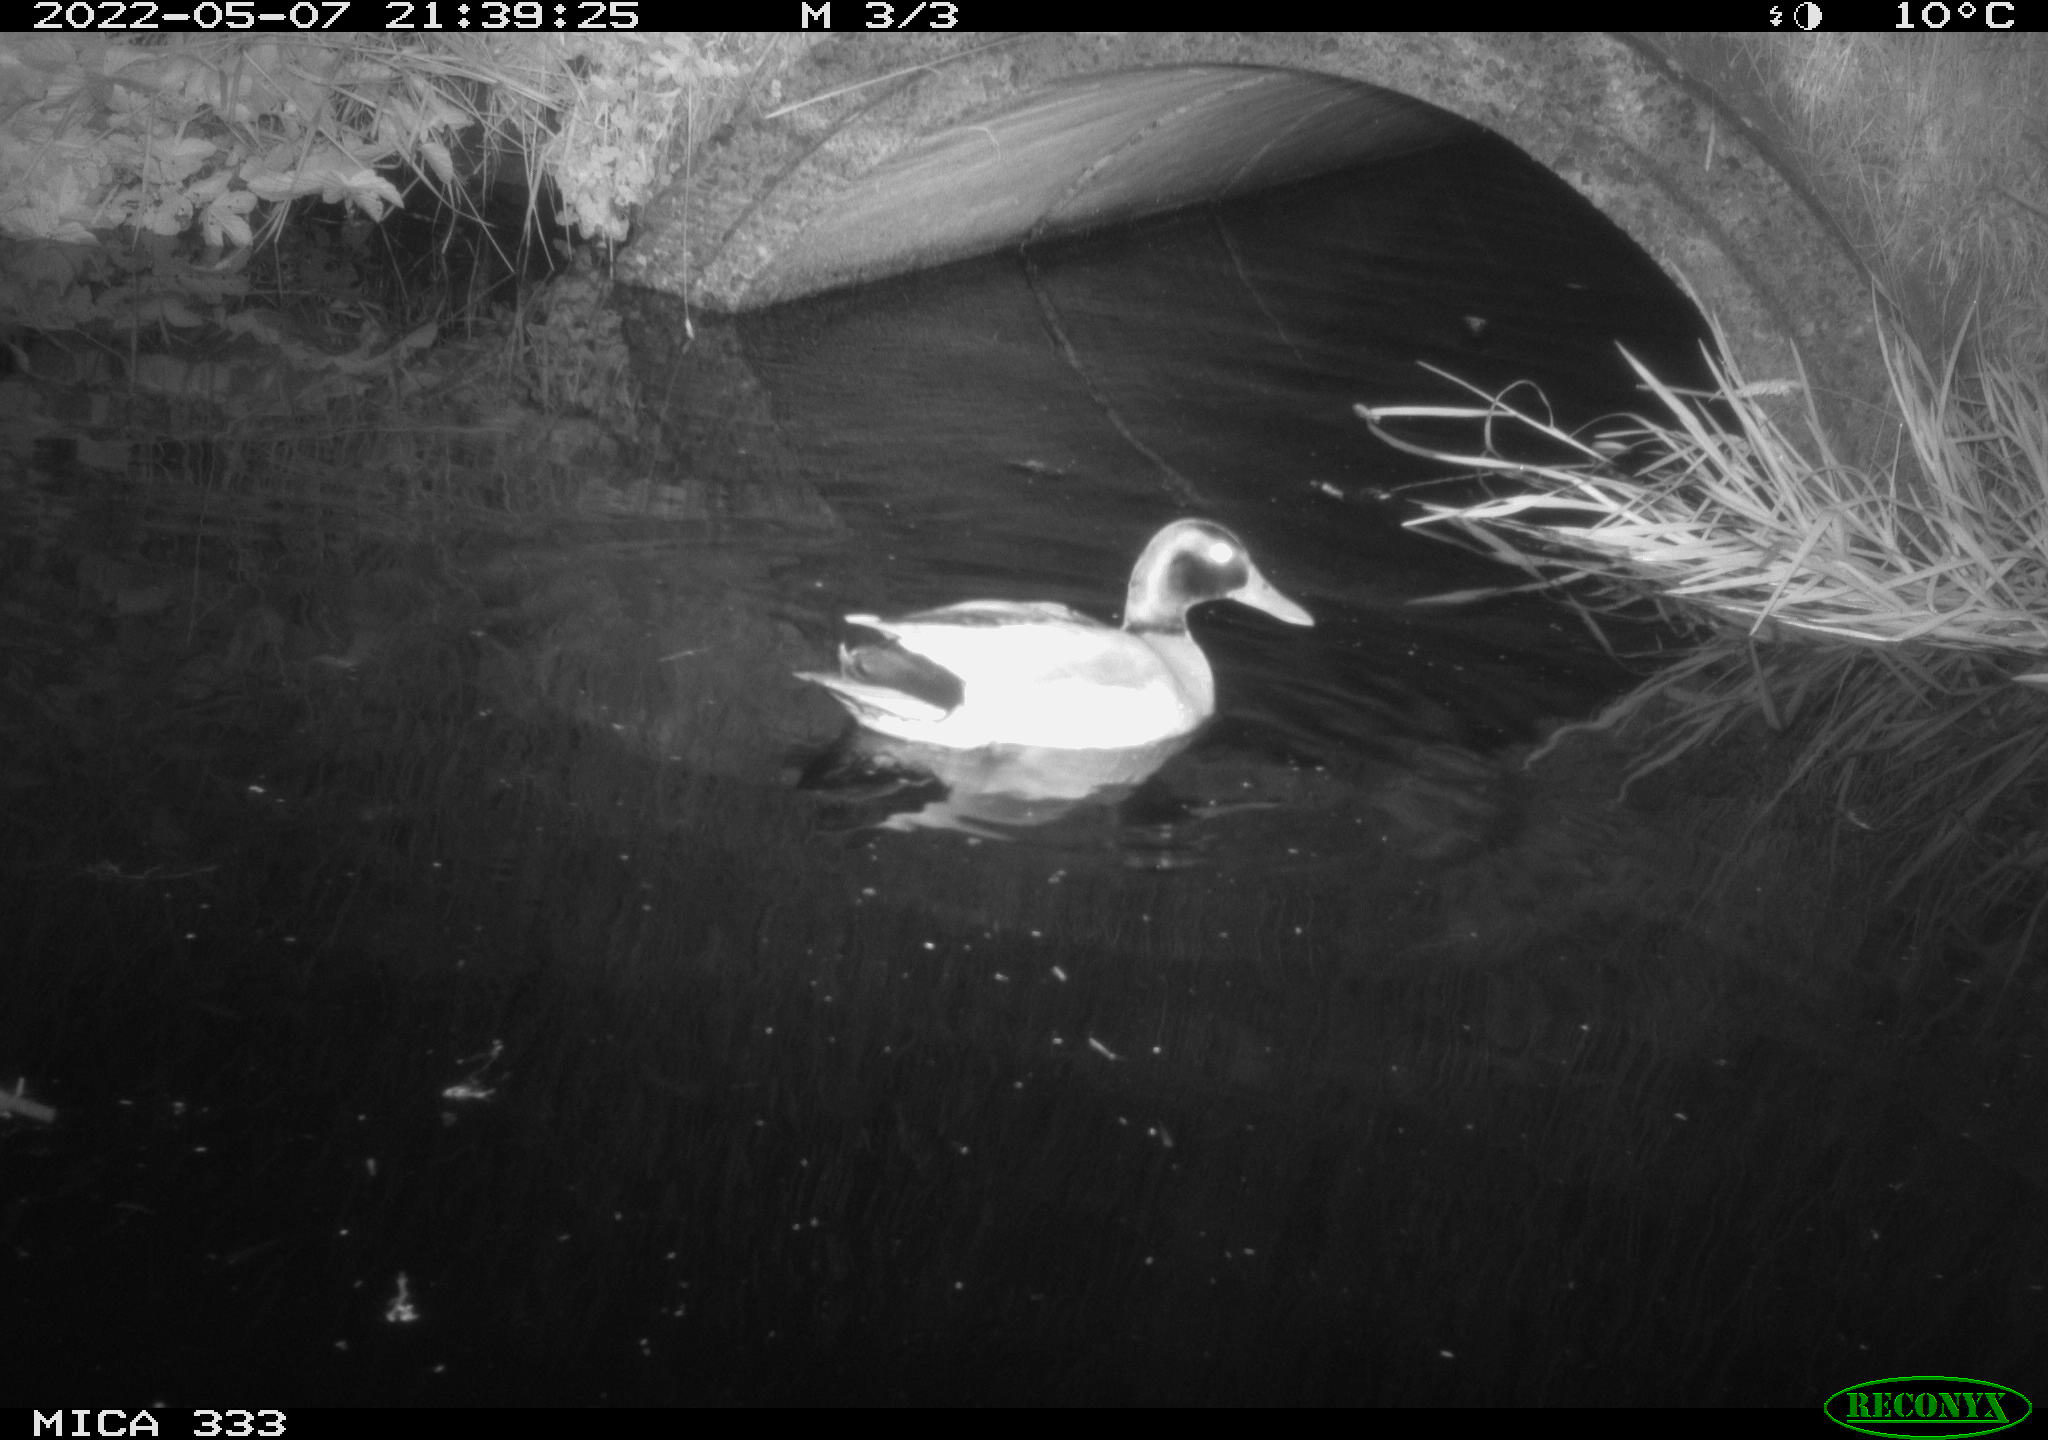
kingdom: Animalia
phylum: Chordata
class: Aves
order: Anseriformes
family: Anatidae
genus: Anas
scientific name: Anas platyrhynchos
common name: Mallard
